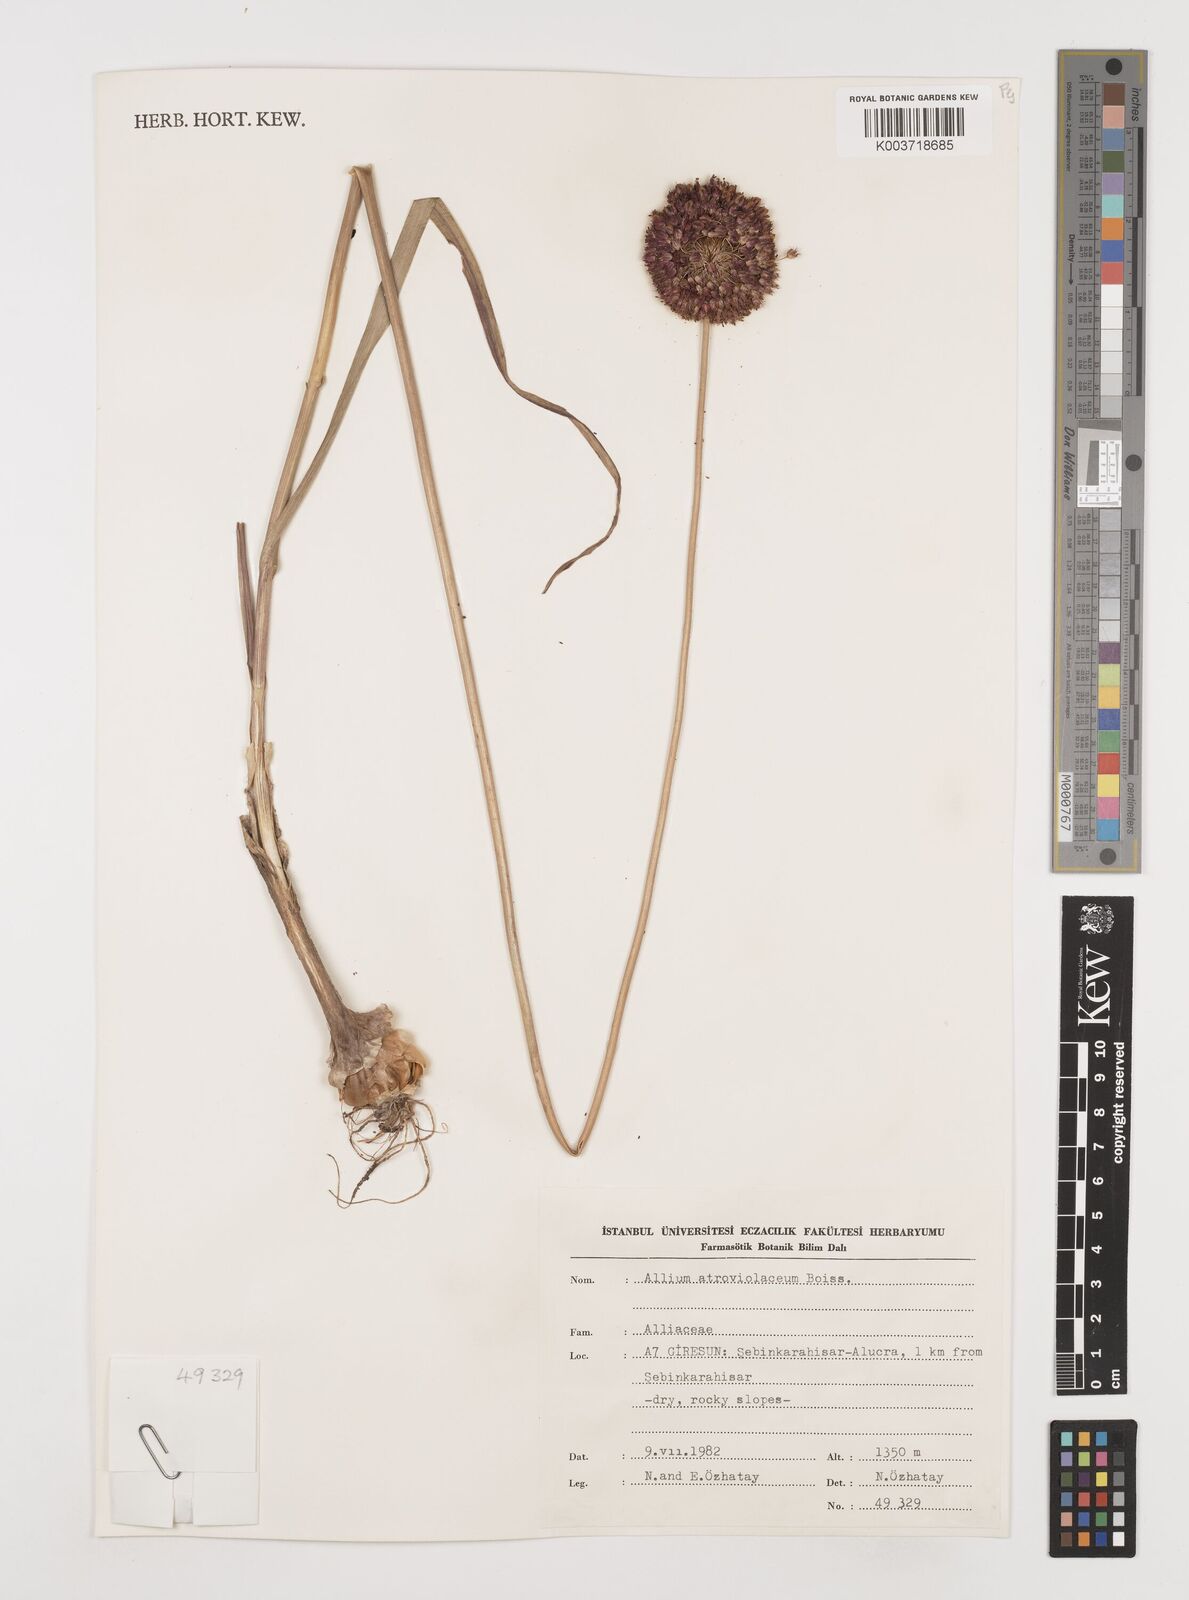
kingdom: Plantae
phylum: Tracheophyta
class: Liliopsida
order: Asparagales
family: Amaryllidaceae
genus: Allium
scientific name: Allium atroviolaceum
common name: Broadleaf wild leek
